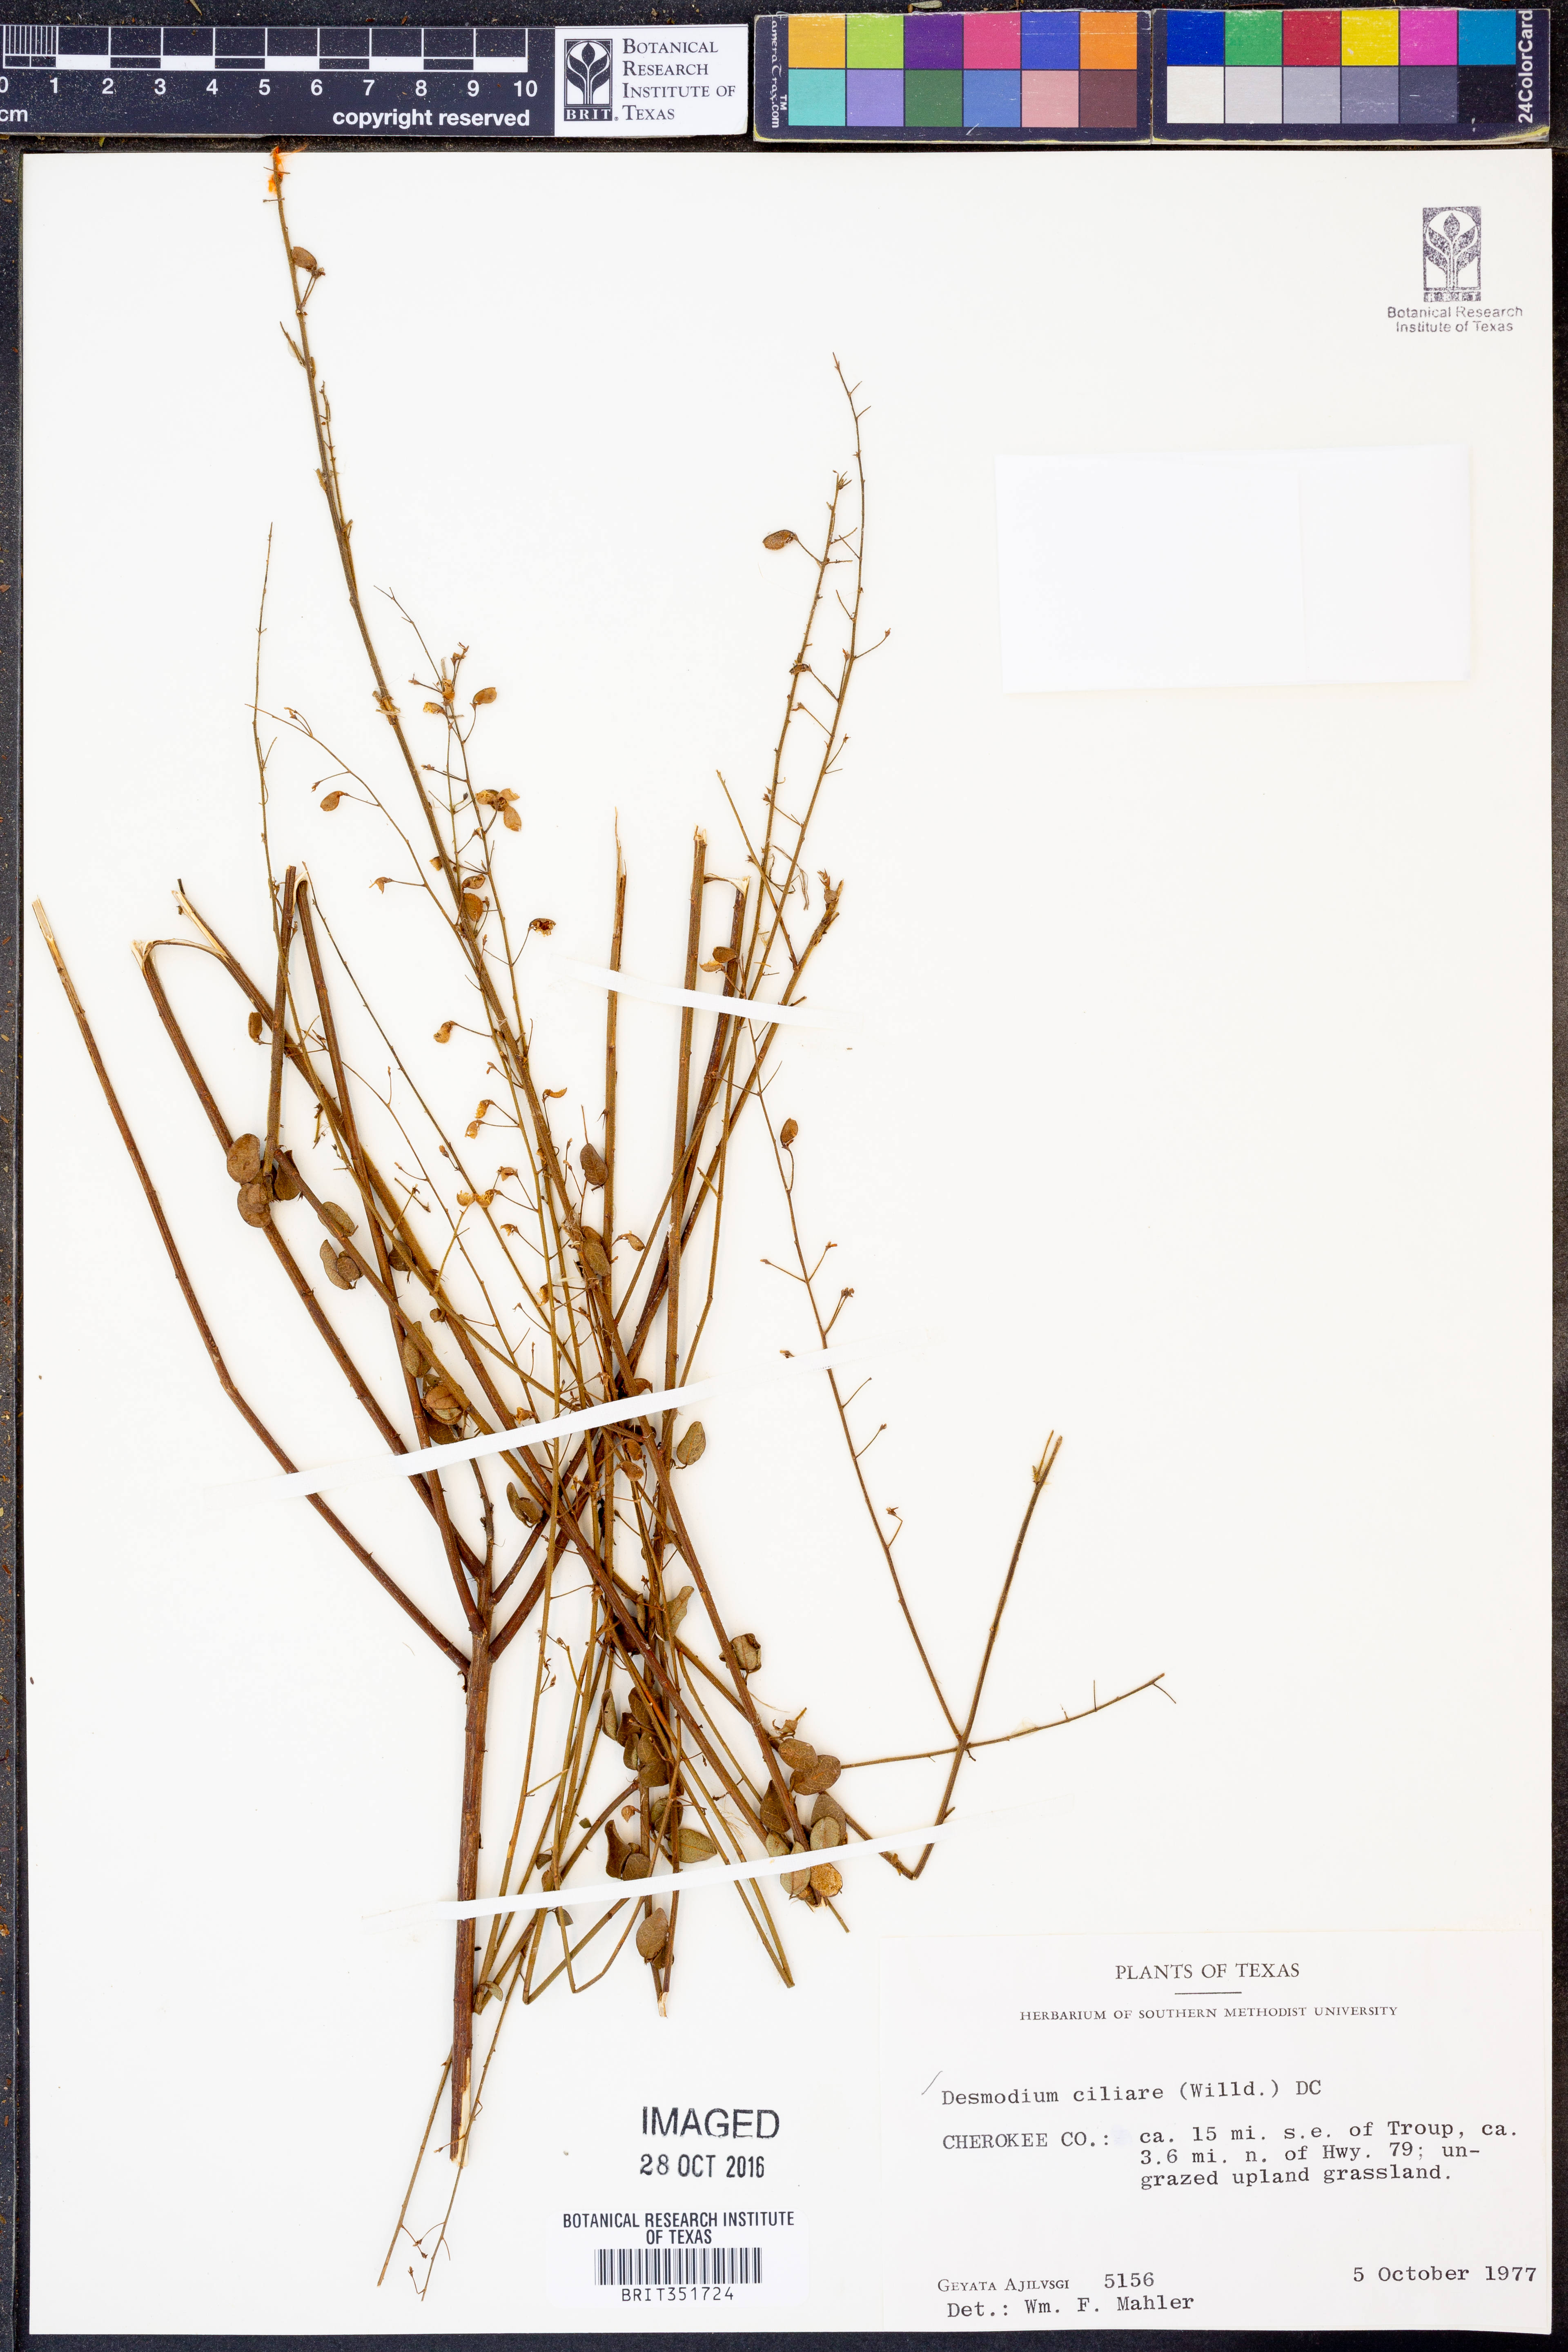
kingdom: Plantae
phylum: Tracheophyta
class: Magnoliopsida
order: Fabales
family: Fabaceae
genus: Desmodium
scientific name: Desmodium ciliare
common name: Hairy small-leaf ticktrefoil
